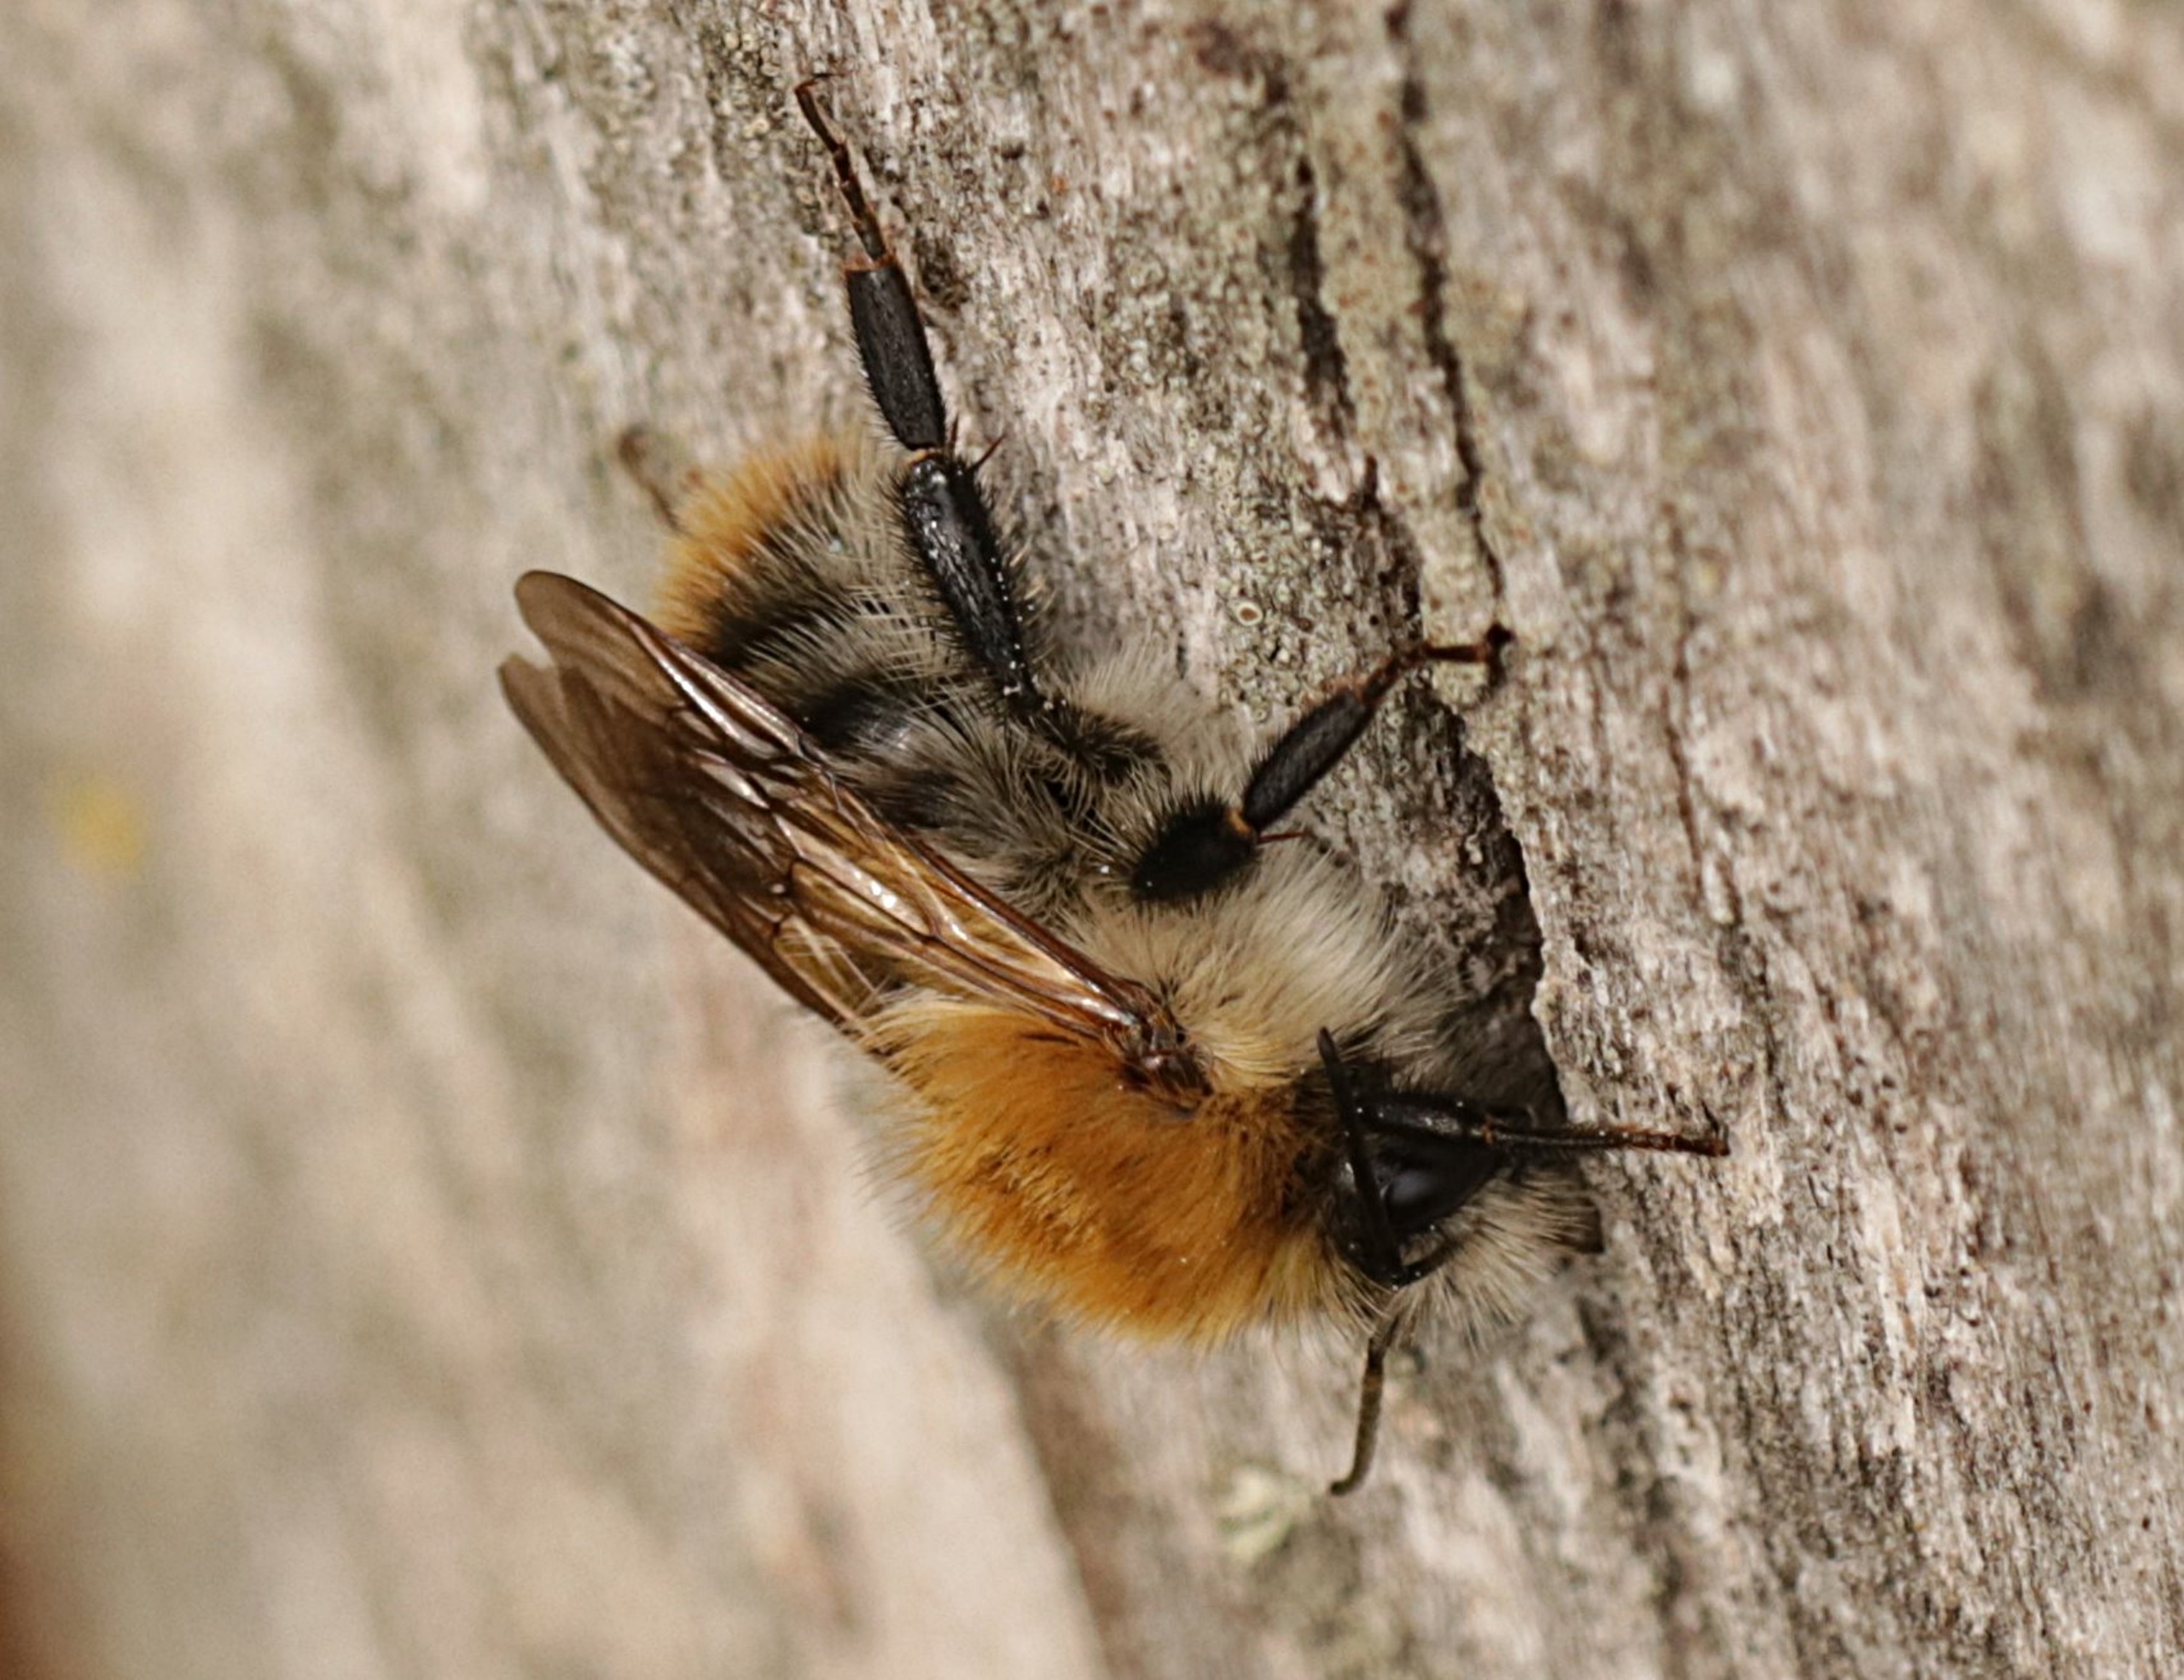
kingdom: Animalia
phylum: Arthropoda
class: Insecta
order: Hymenoptera
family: Apidae
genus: Bombus
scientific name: Bombus pascuorum
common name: Agerhumle
